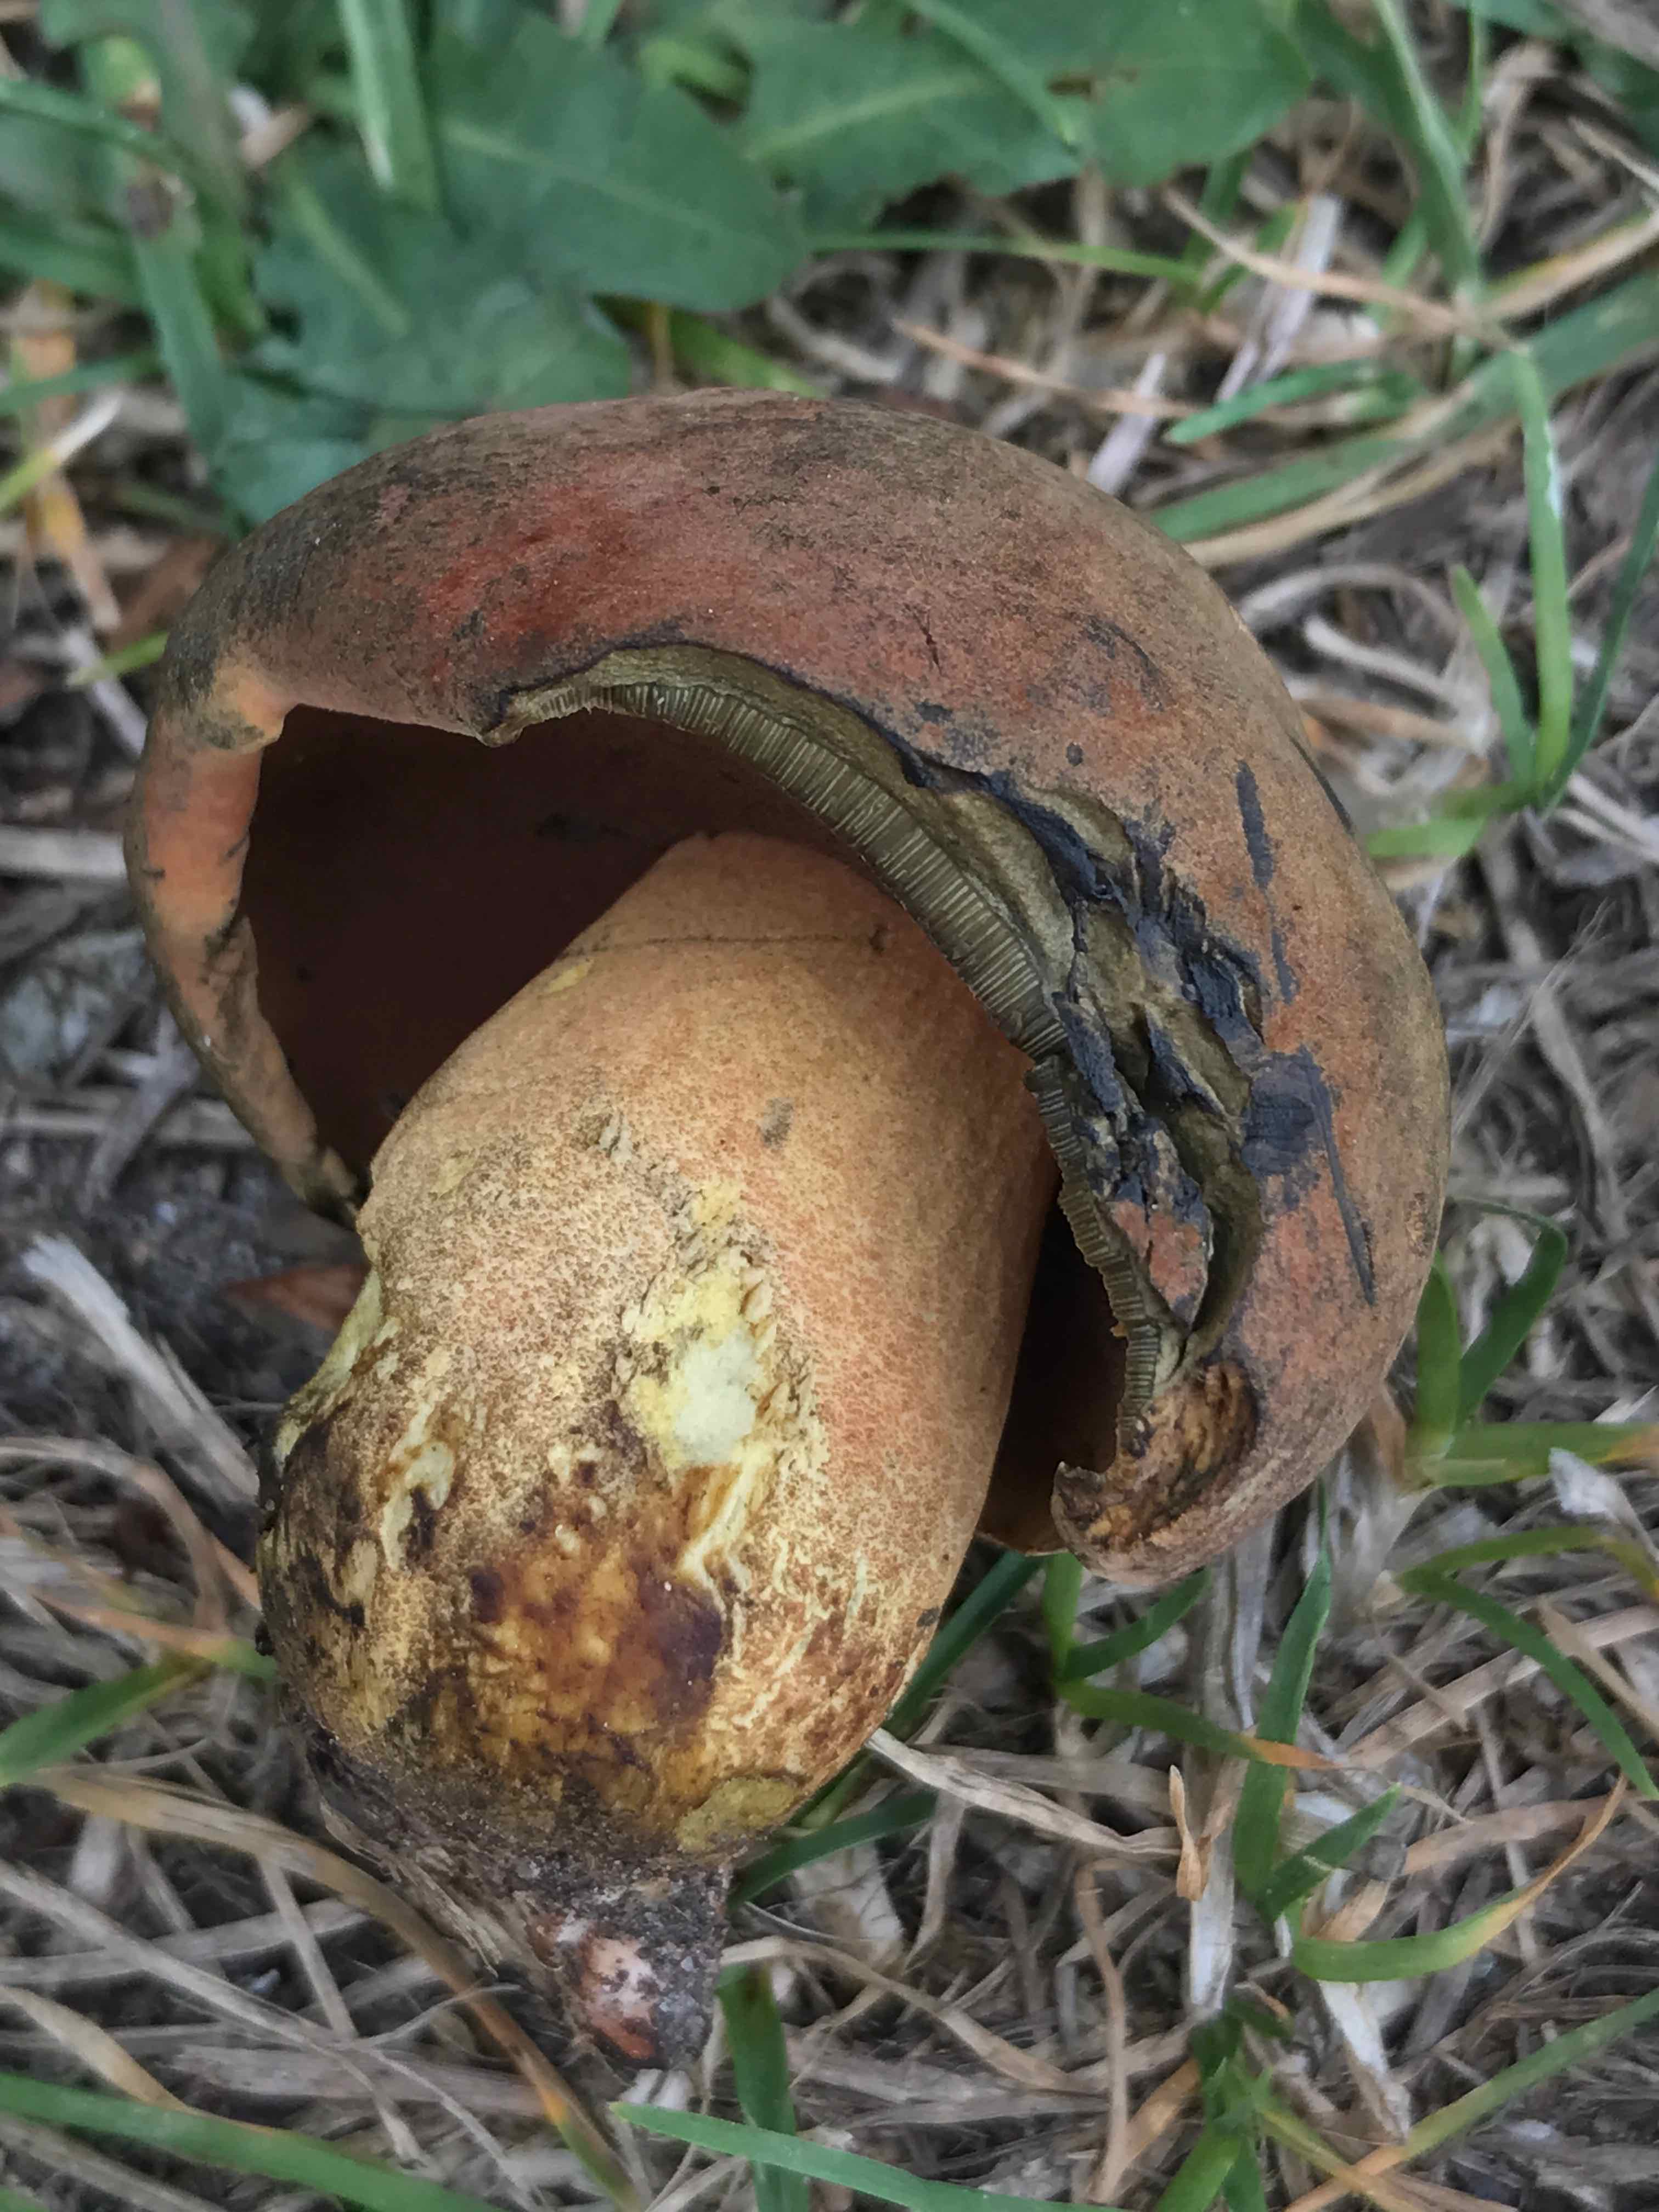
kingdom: Fungi
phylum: Basidiomycota
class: Agaricomycetes
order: Boletales
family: Boletaceae
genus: Neoboletus
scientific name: Neoboletus erythropus
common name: punktstokket indigorørhat
